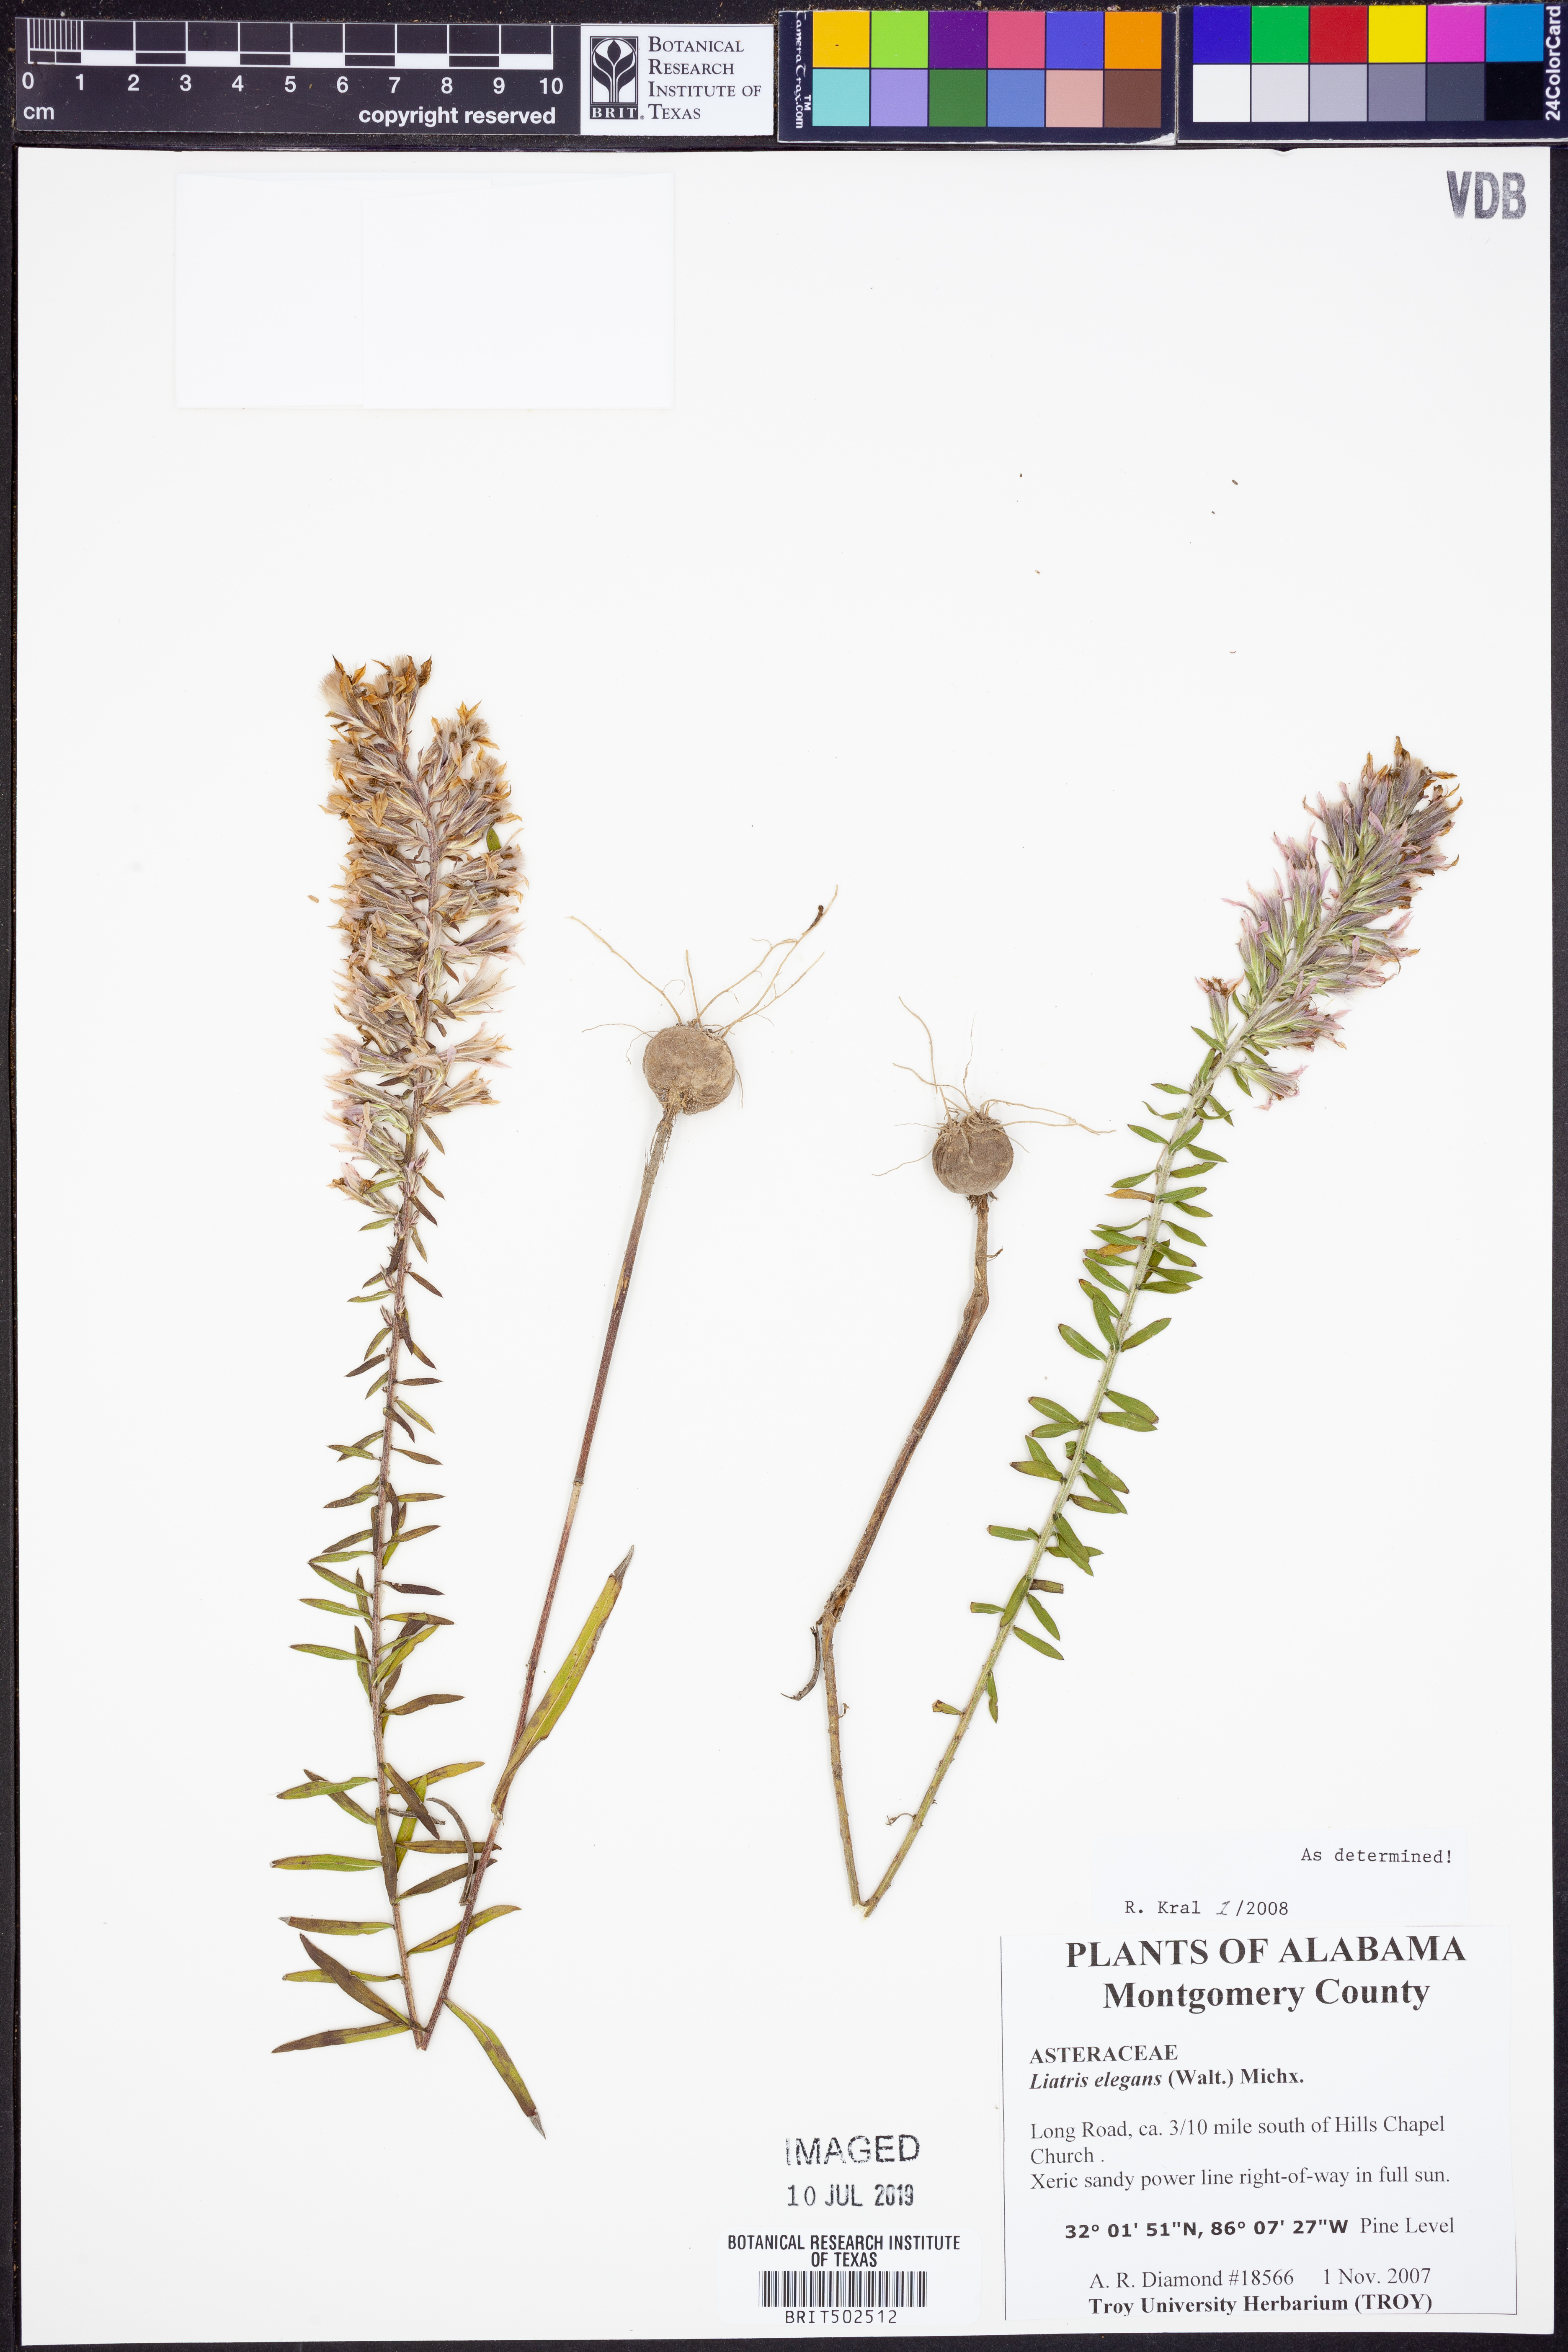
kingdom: Plantae
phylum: Tracheophyta
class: Magnoliopsida
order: Asterales
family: Asteraceae
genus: Liatris
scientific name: Liatris elegans
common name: Pinkscale gayfeather
